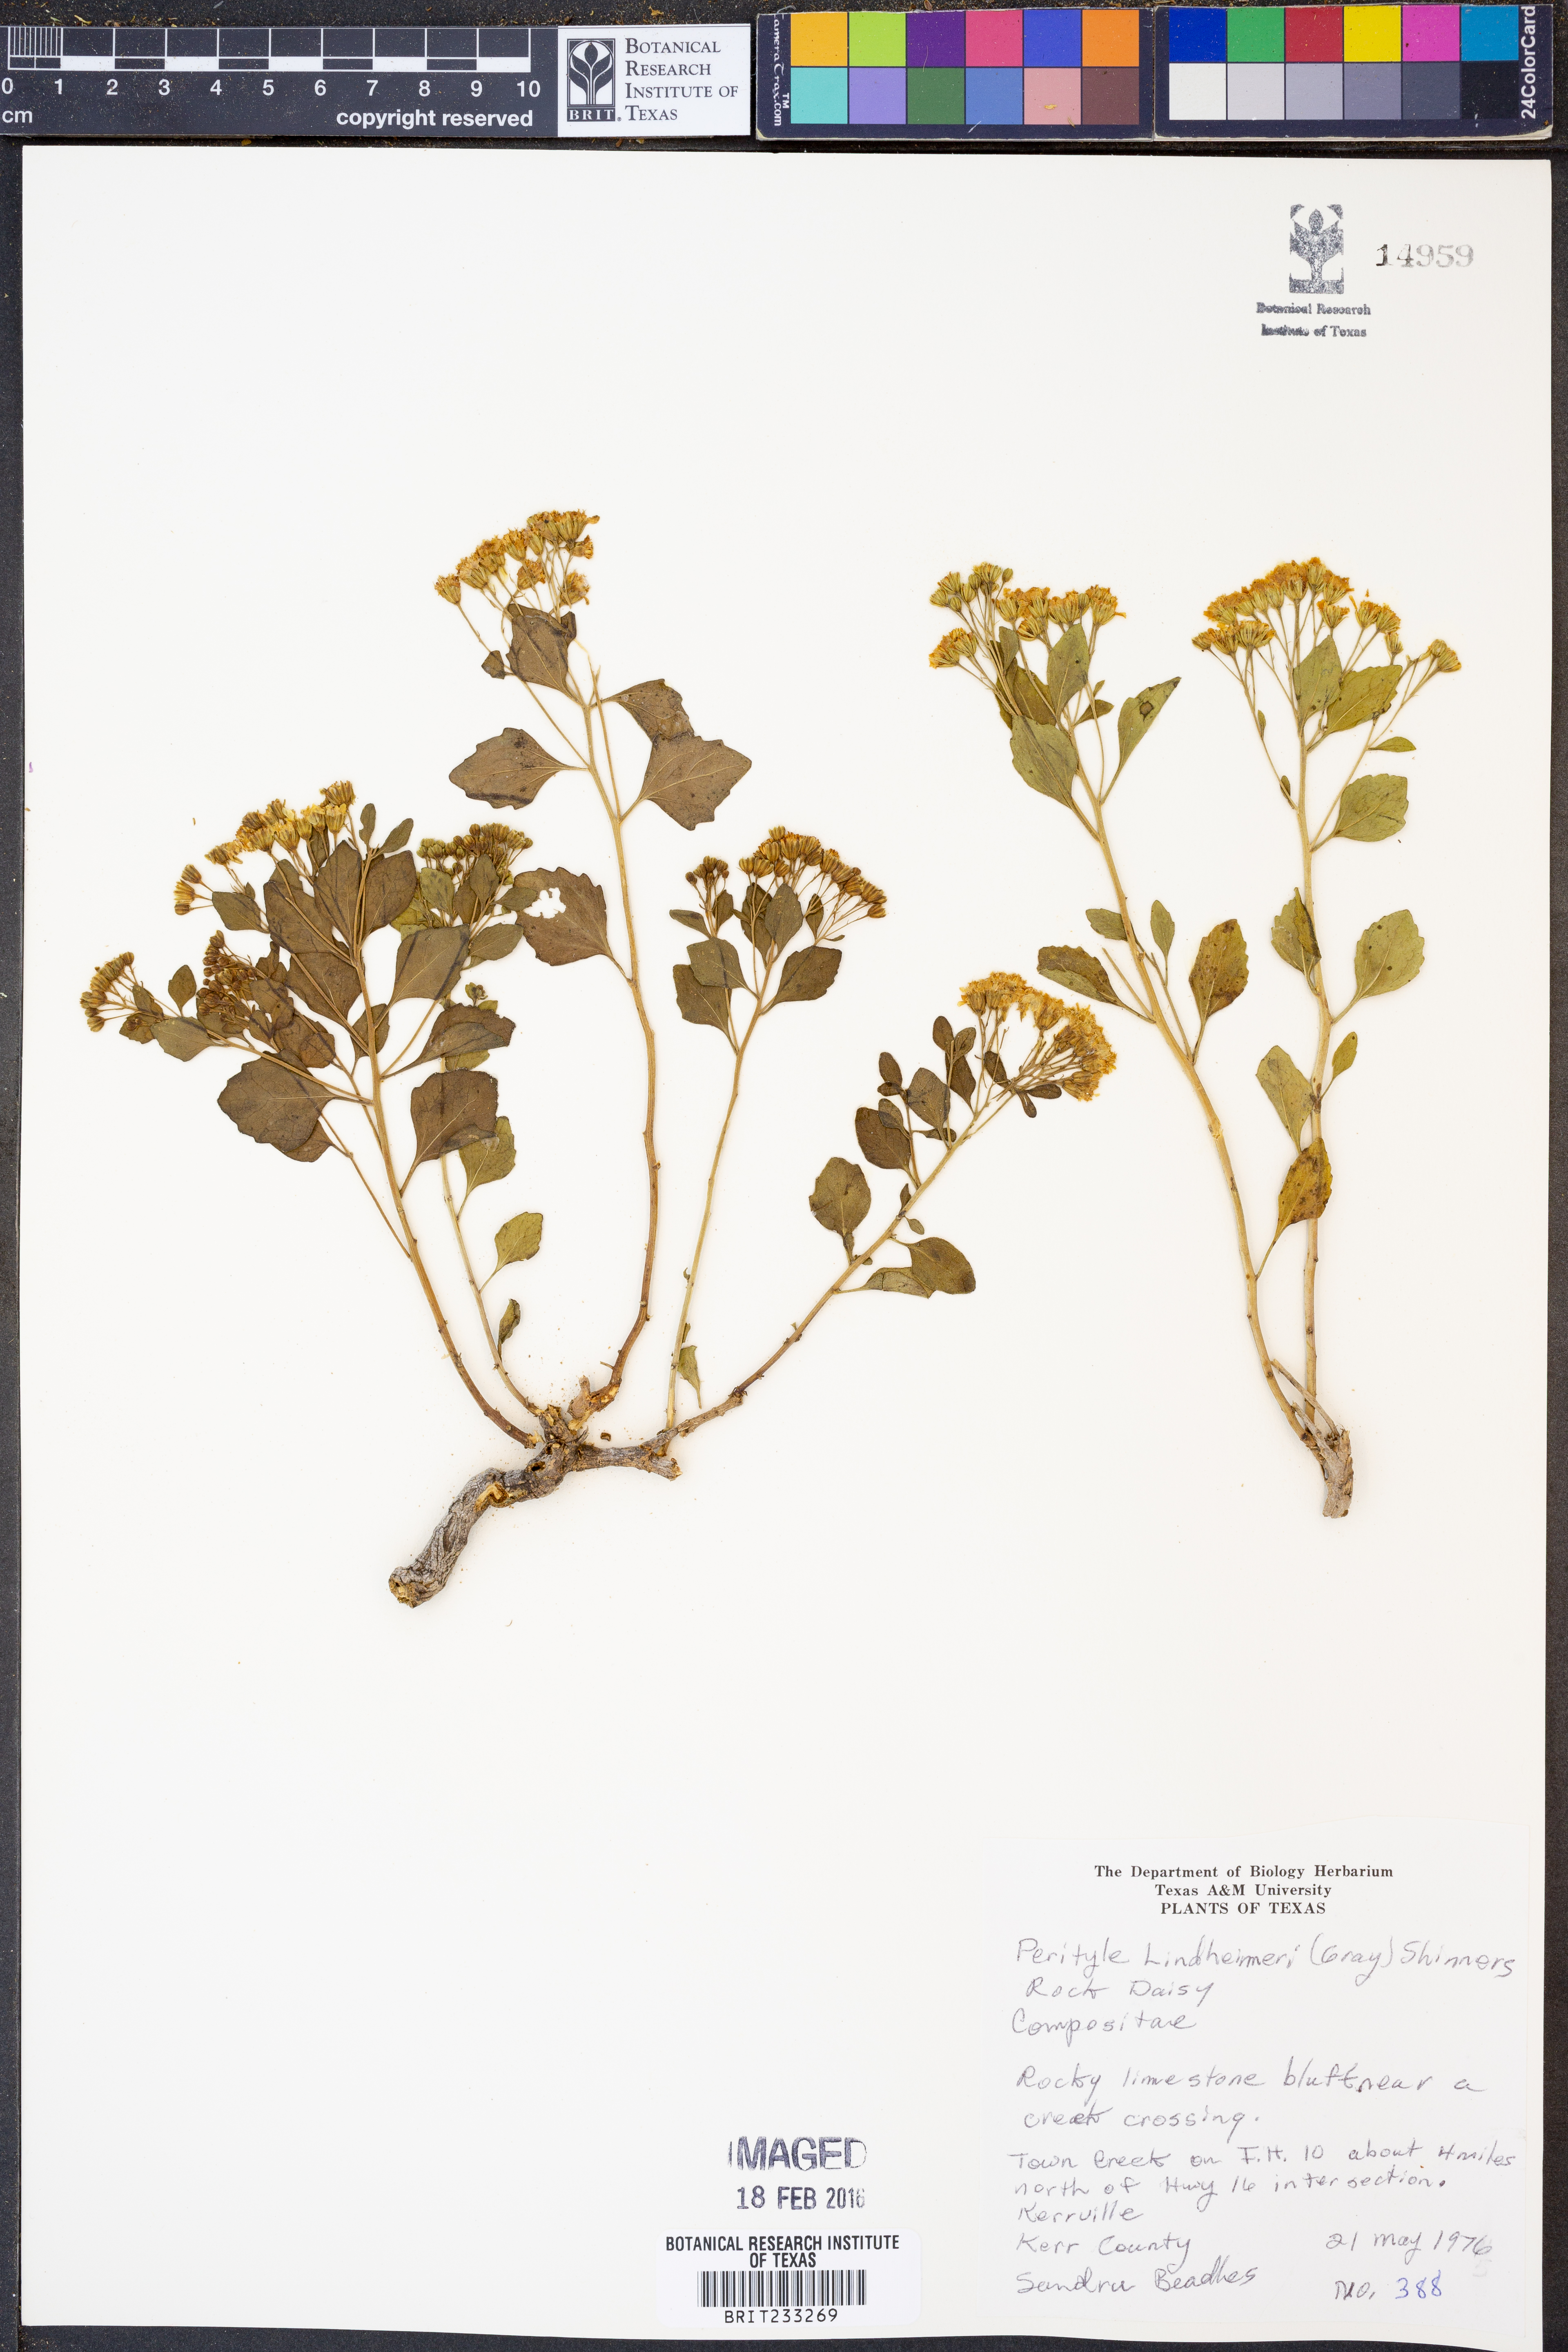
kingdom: Plantae
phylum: Tracheophyta
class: Magnoliopsida
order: Asterales
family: Asteraceae
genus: Laphamia
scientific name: Laphamia lindheimeri
